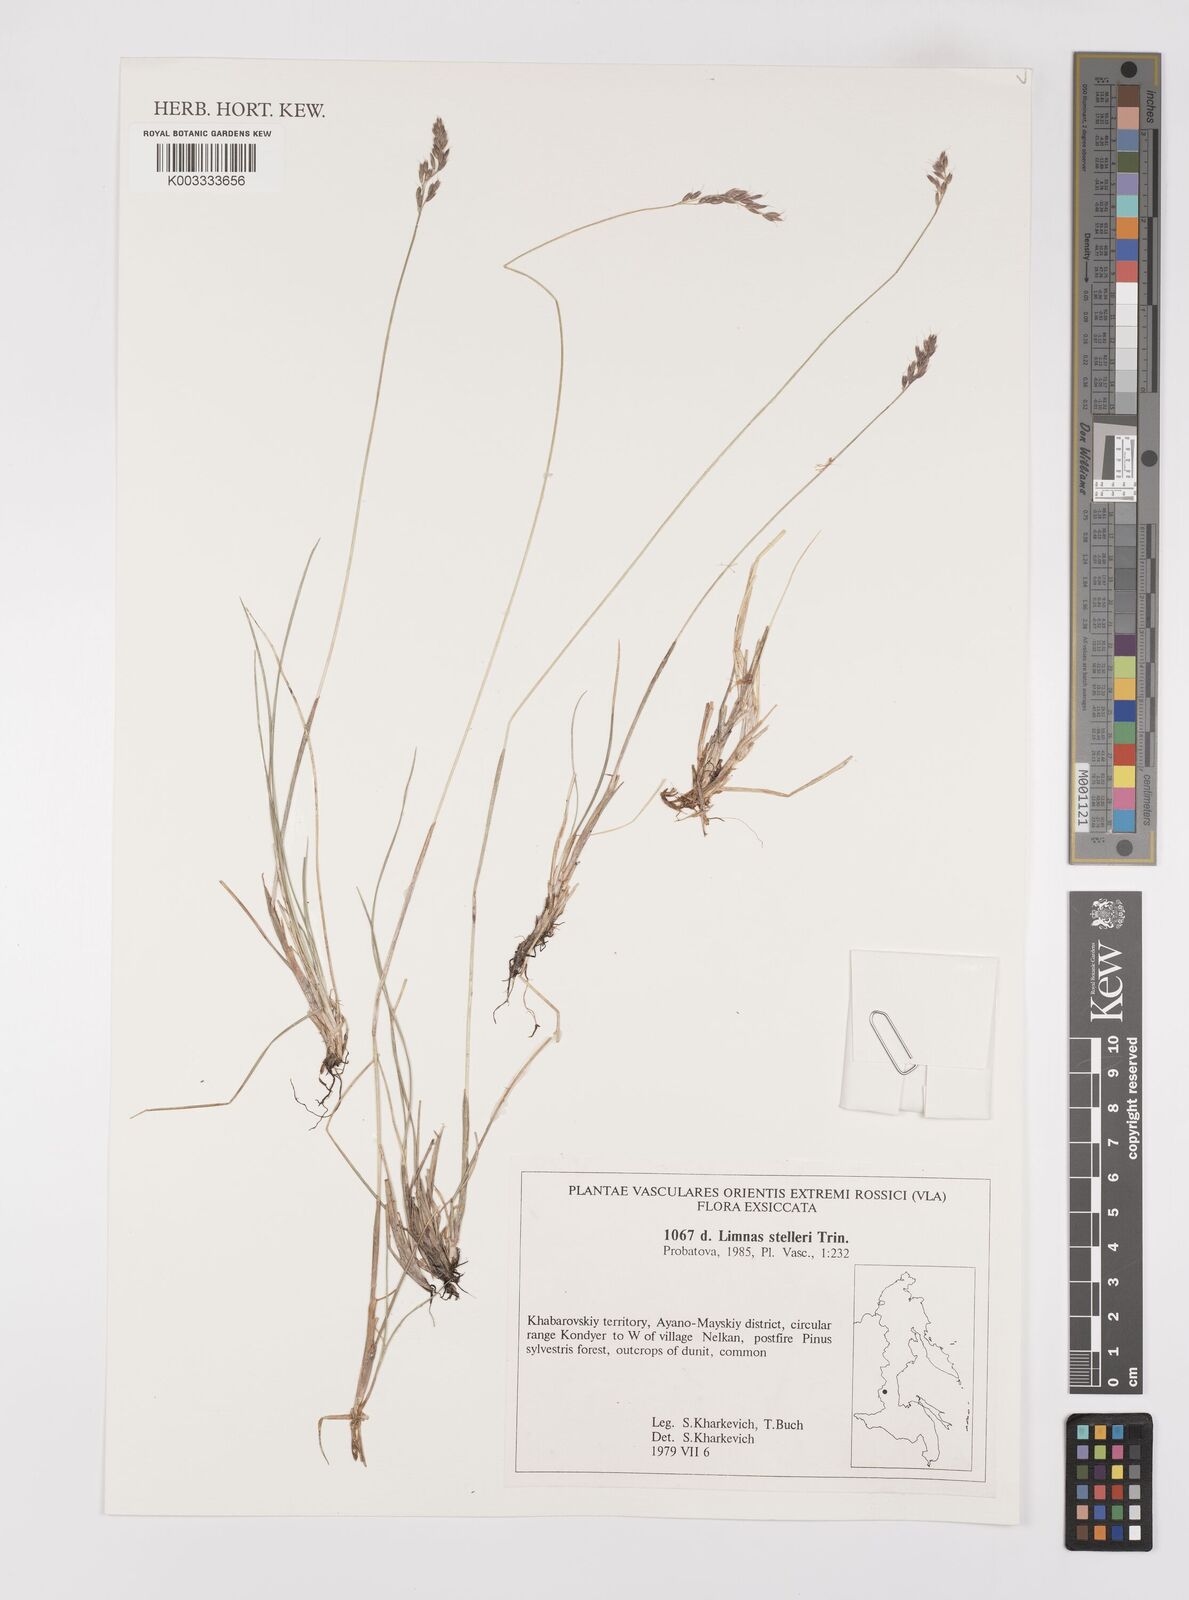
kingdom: Plantae
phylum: Tracheophyta
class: Liliopsida
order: Poales
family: Poaceae
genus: Limnas
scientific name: Limnas stelleri
